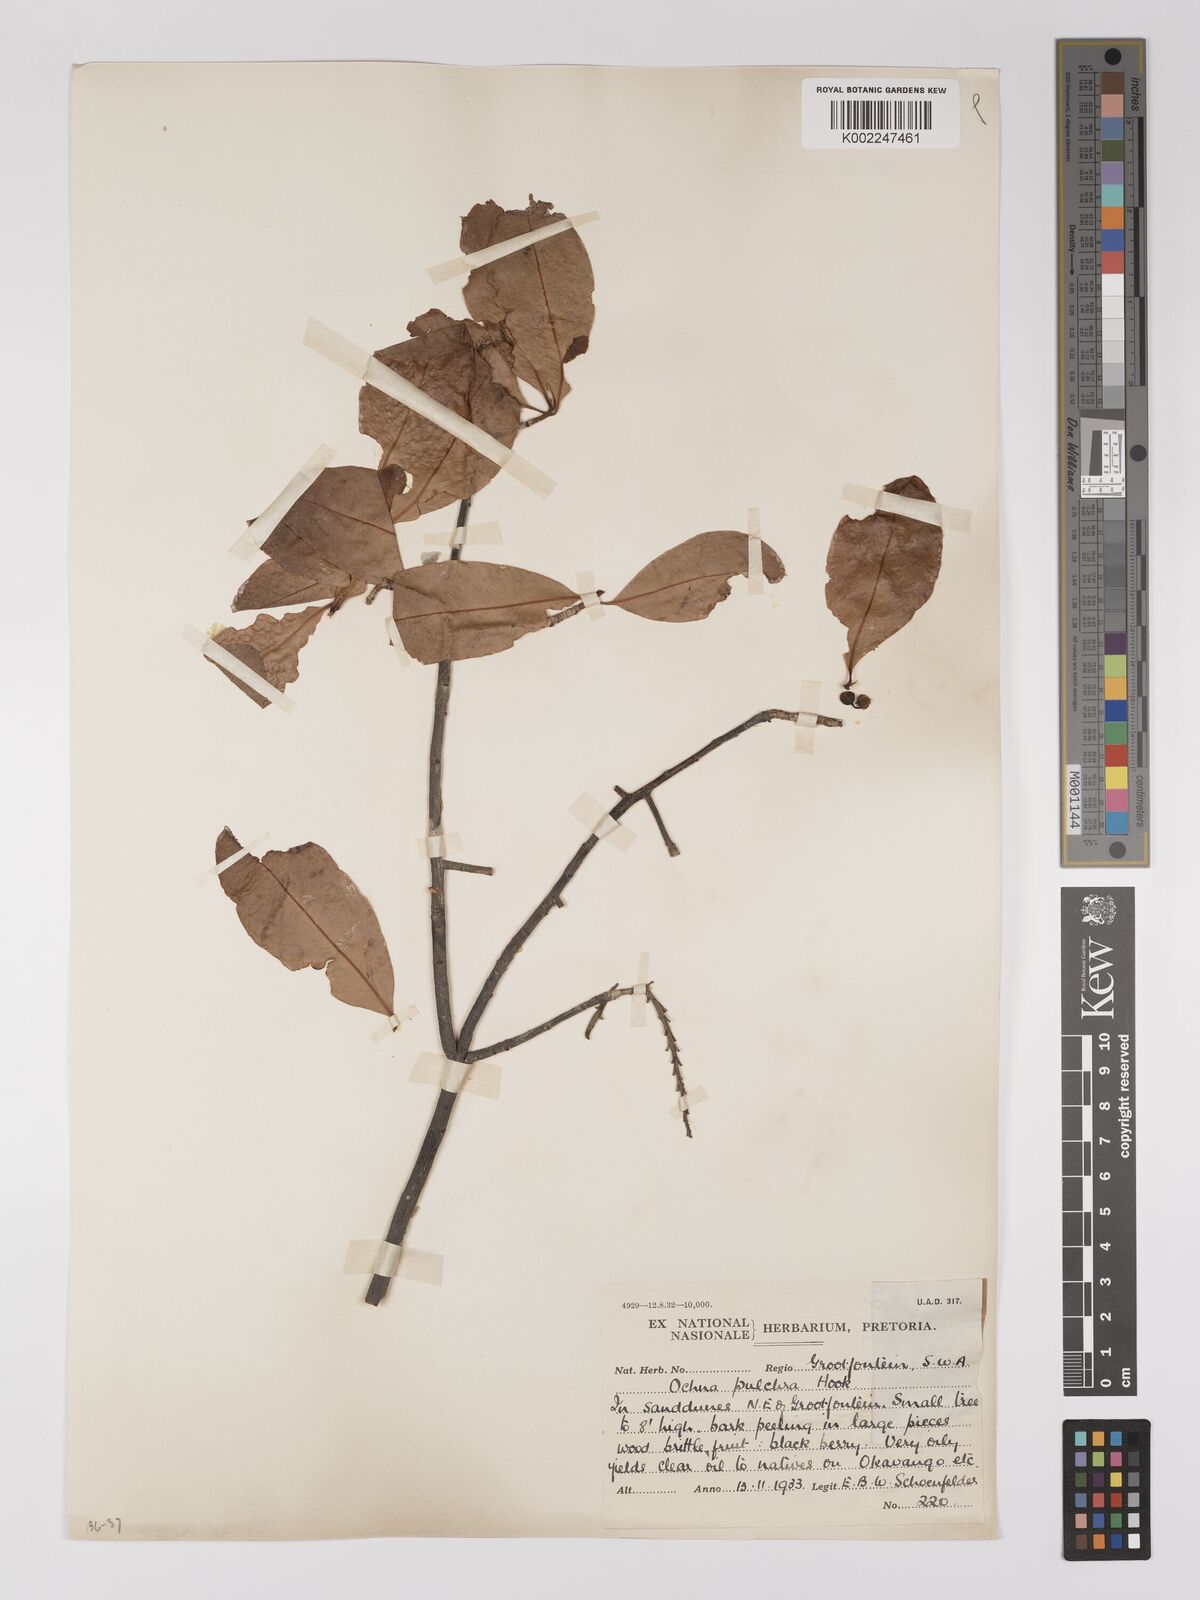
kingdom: Plantae
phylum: Tracheophyta
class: Magnoliopsida
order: Malpighiales
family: Ochnaceae
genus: Ochna
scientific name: Ochna pulchra
